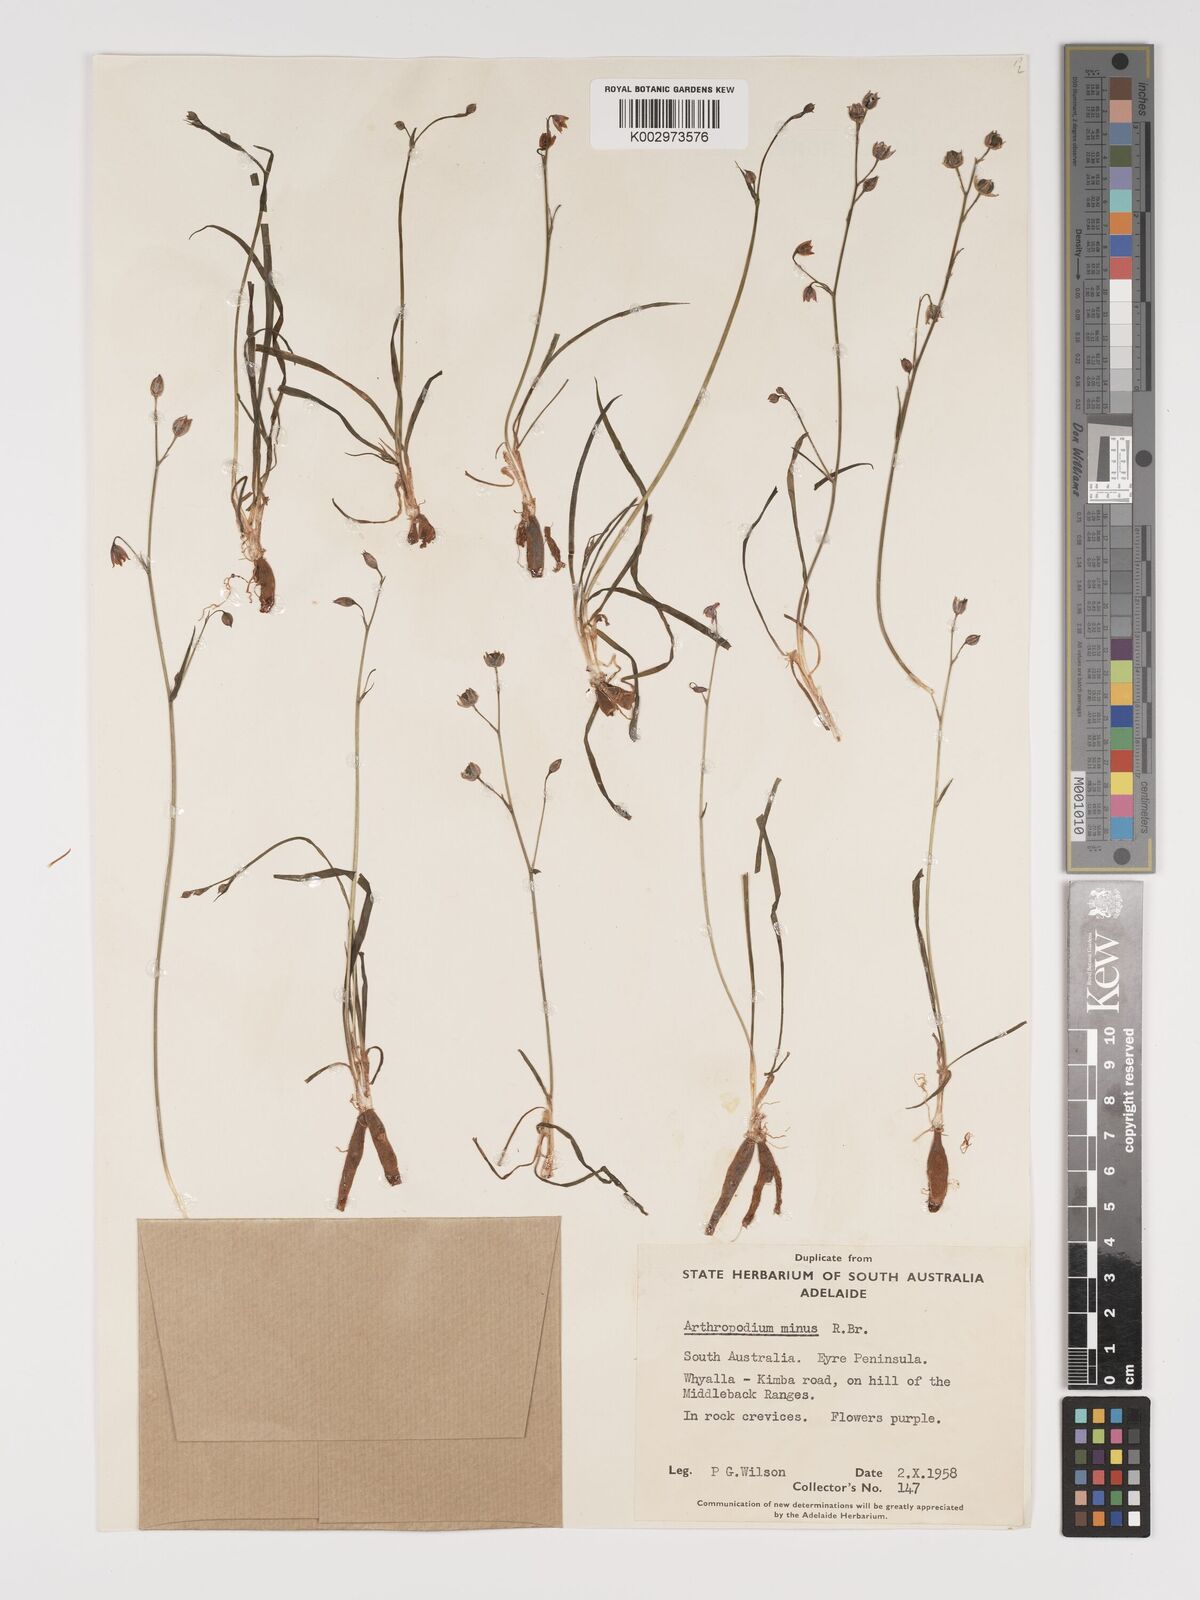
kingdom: Plantae
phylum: Tracheophyta
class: Liliopsida
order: Asparagales
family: Asparagaceae
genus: Arthropodium
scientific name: Arthropodium minus
